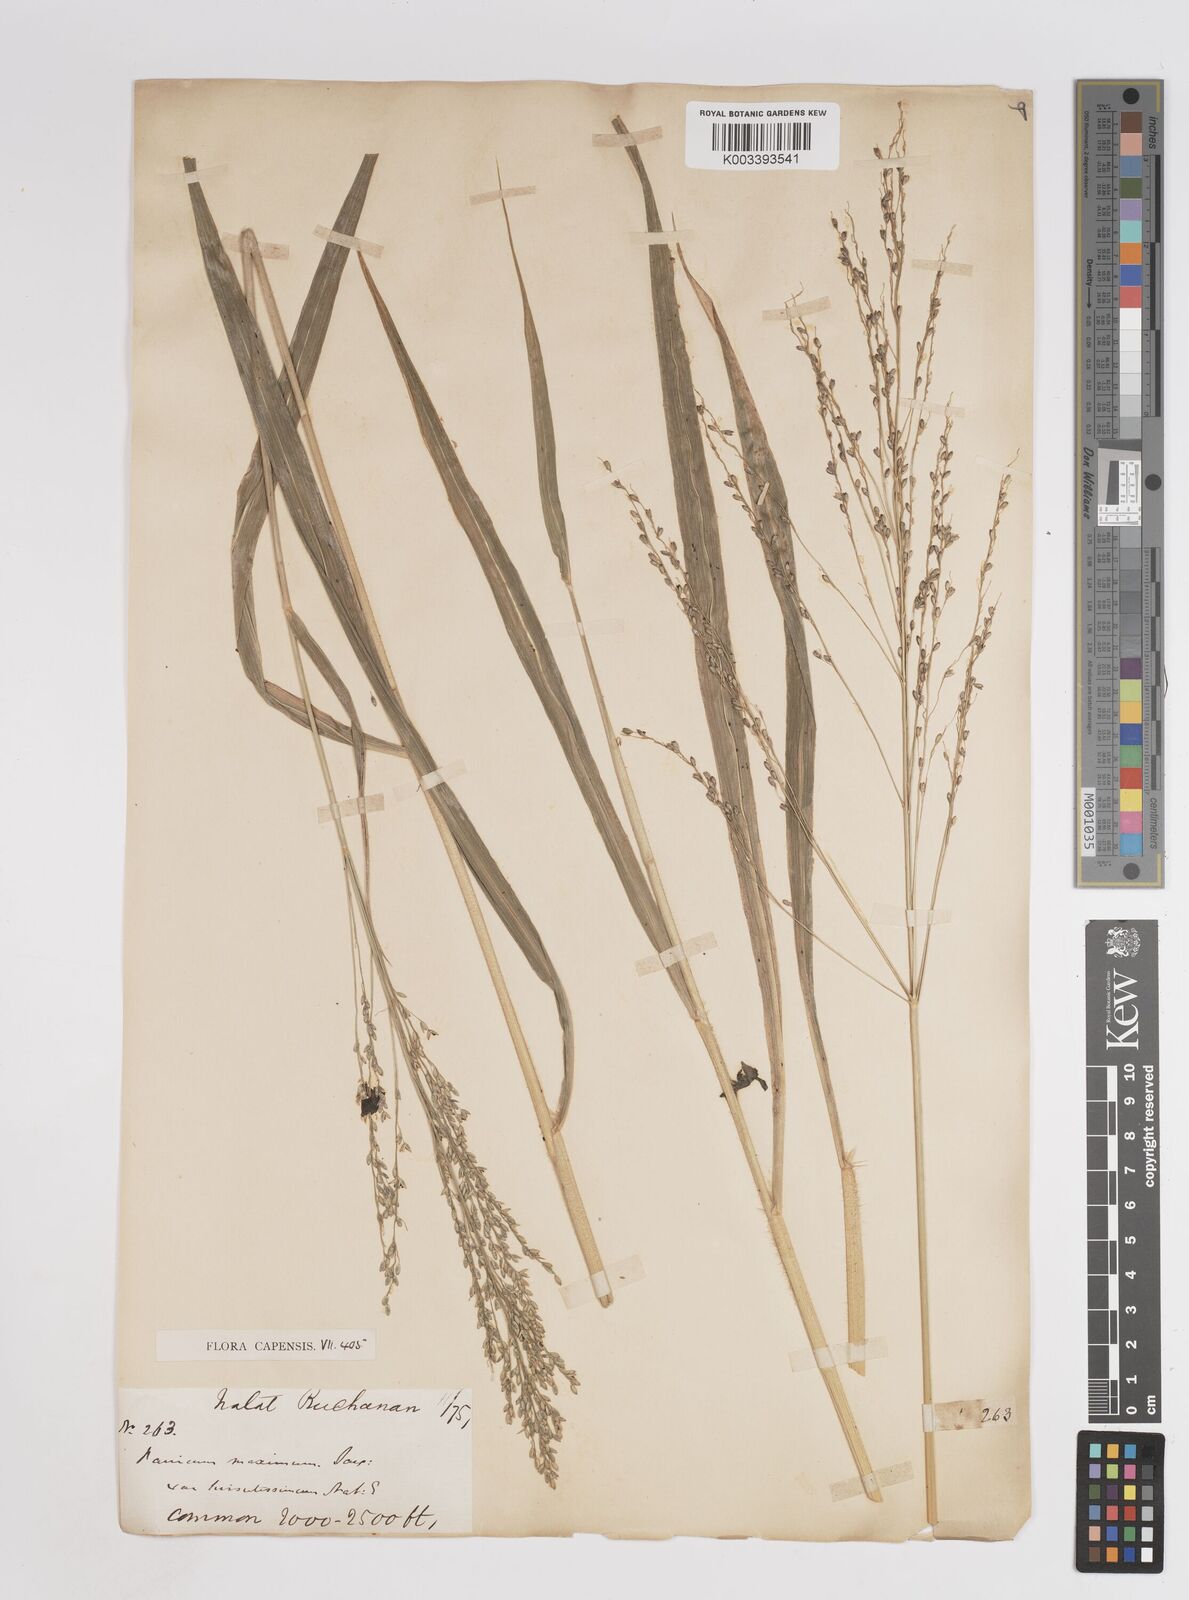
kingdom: Plantae
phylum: Tracheophyta
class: Liliopsida
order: Poales
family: Poaceae
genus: Megathyrsus
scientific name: Megathyrsus maximus
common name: Guineagrass
